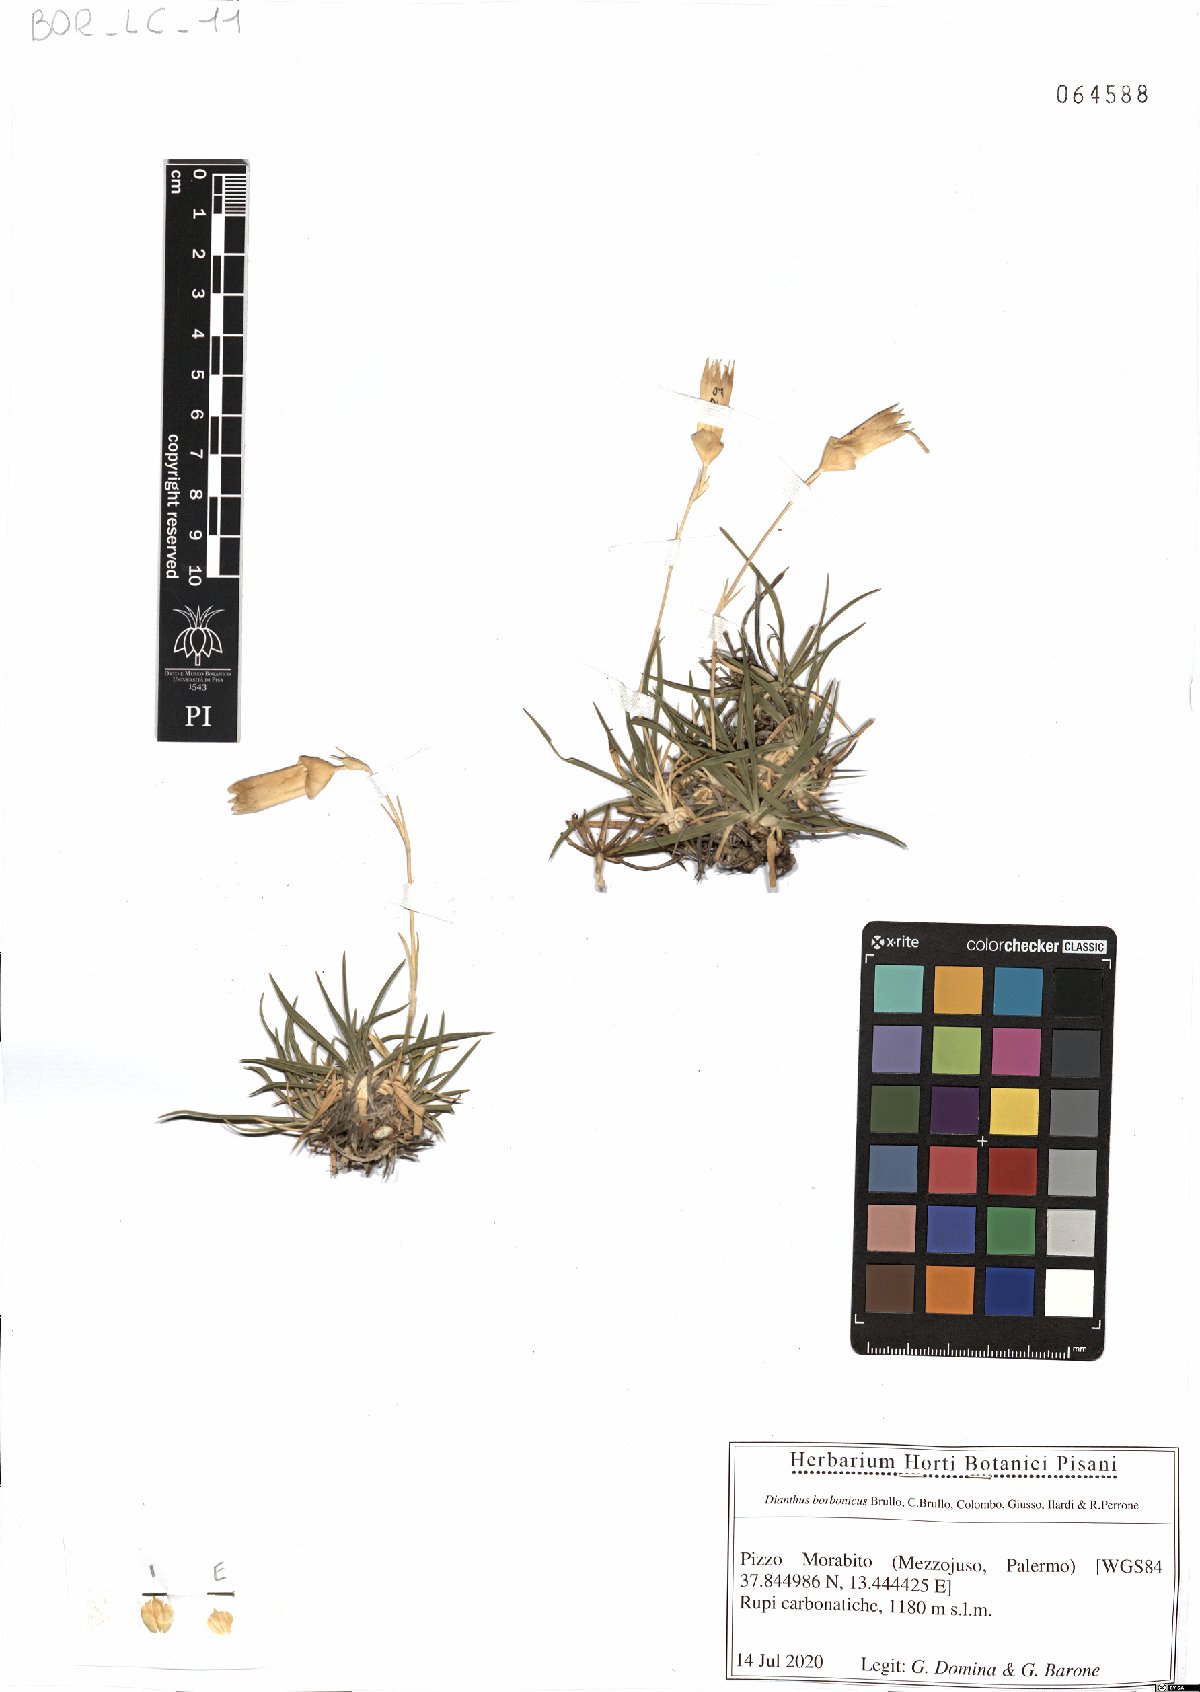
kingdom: Plantae
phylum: Tracheophyta
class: Magnoliopsida
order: Caryophyllales
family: Caryophyllaceae
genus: Dianthus
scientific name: Dianthus borbonicus
